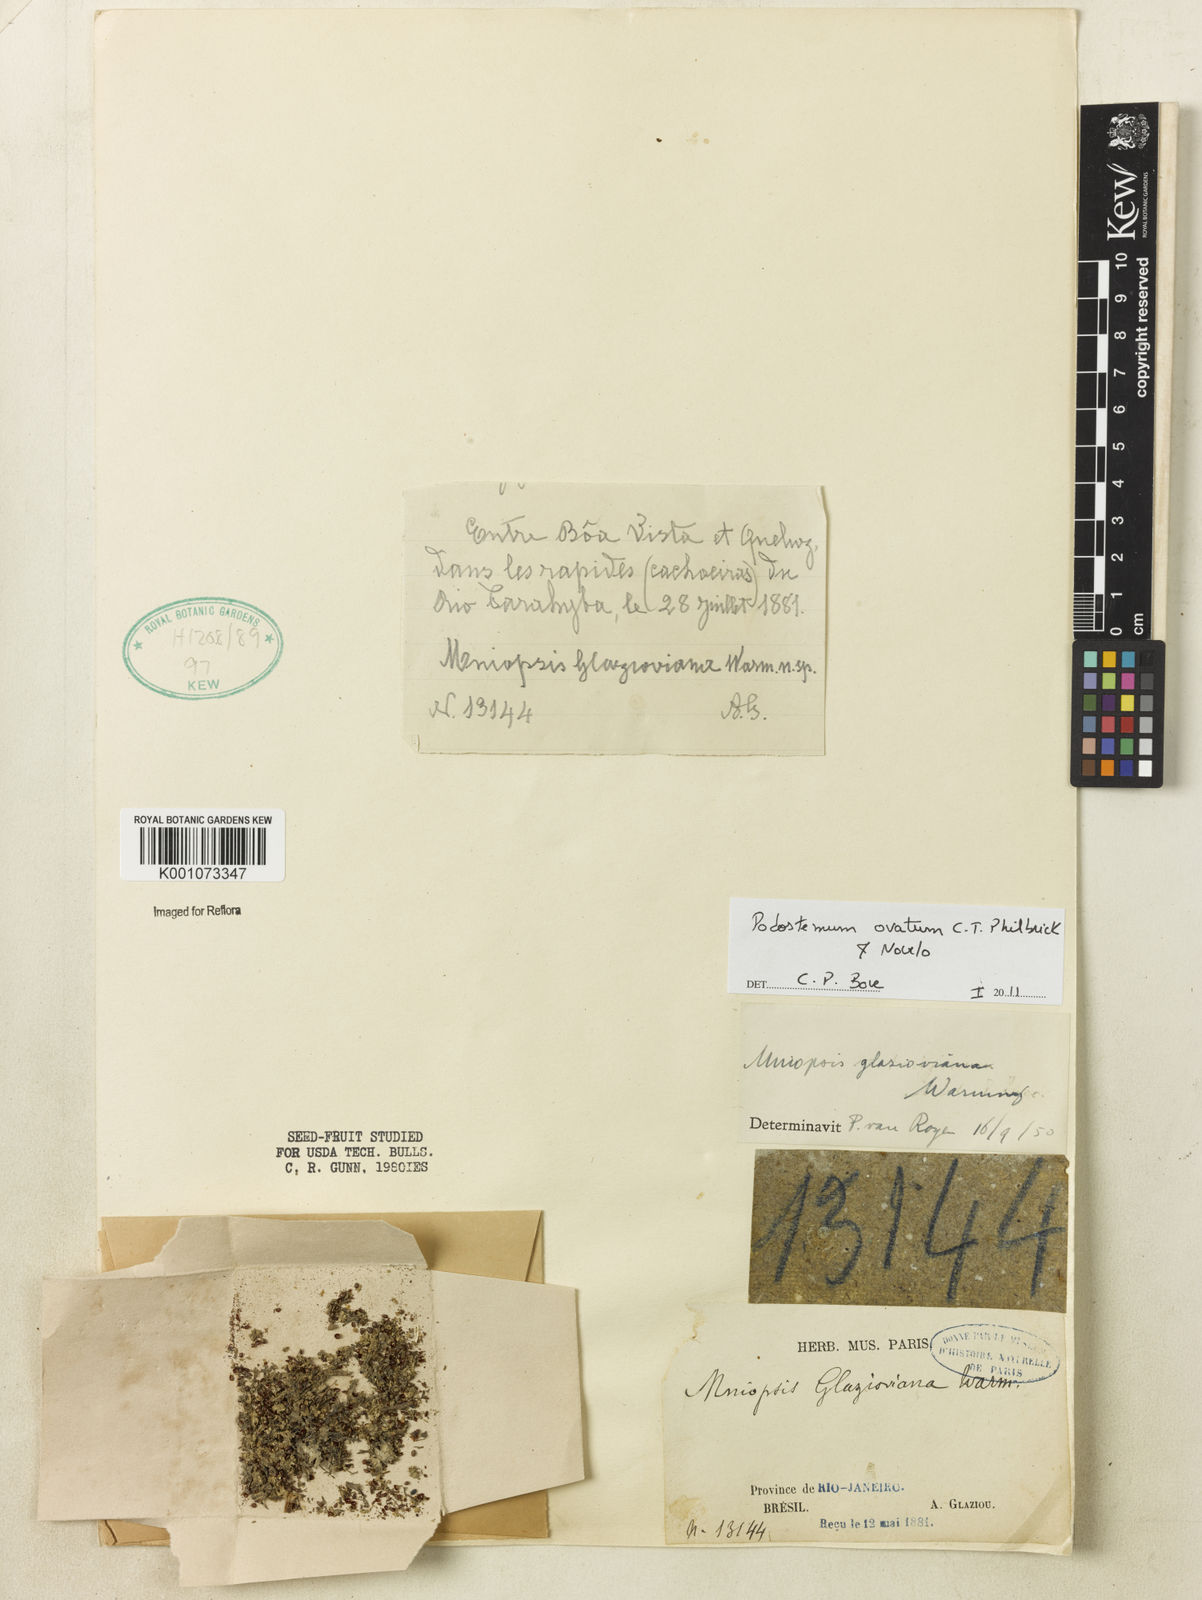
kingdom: Plantae
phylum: Tracheophyta
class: Magnoliopsida
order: Malpighiales
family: Podostemaceae
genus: Podostemum
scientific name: Podostemum ovatum
